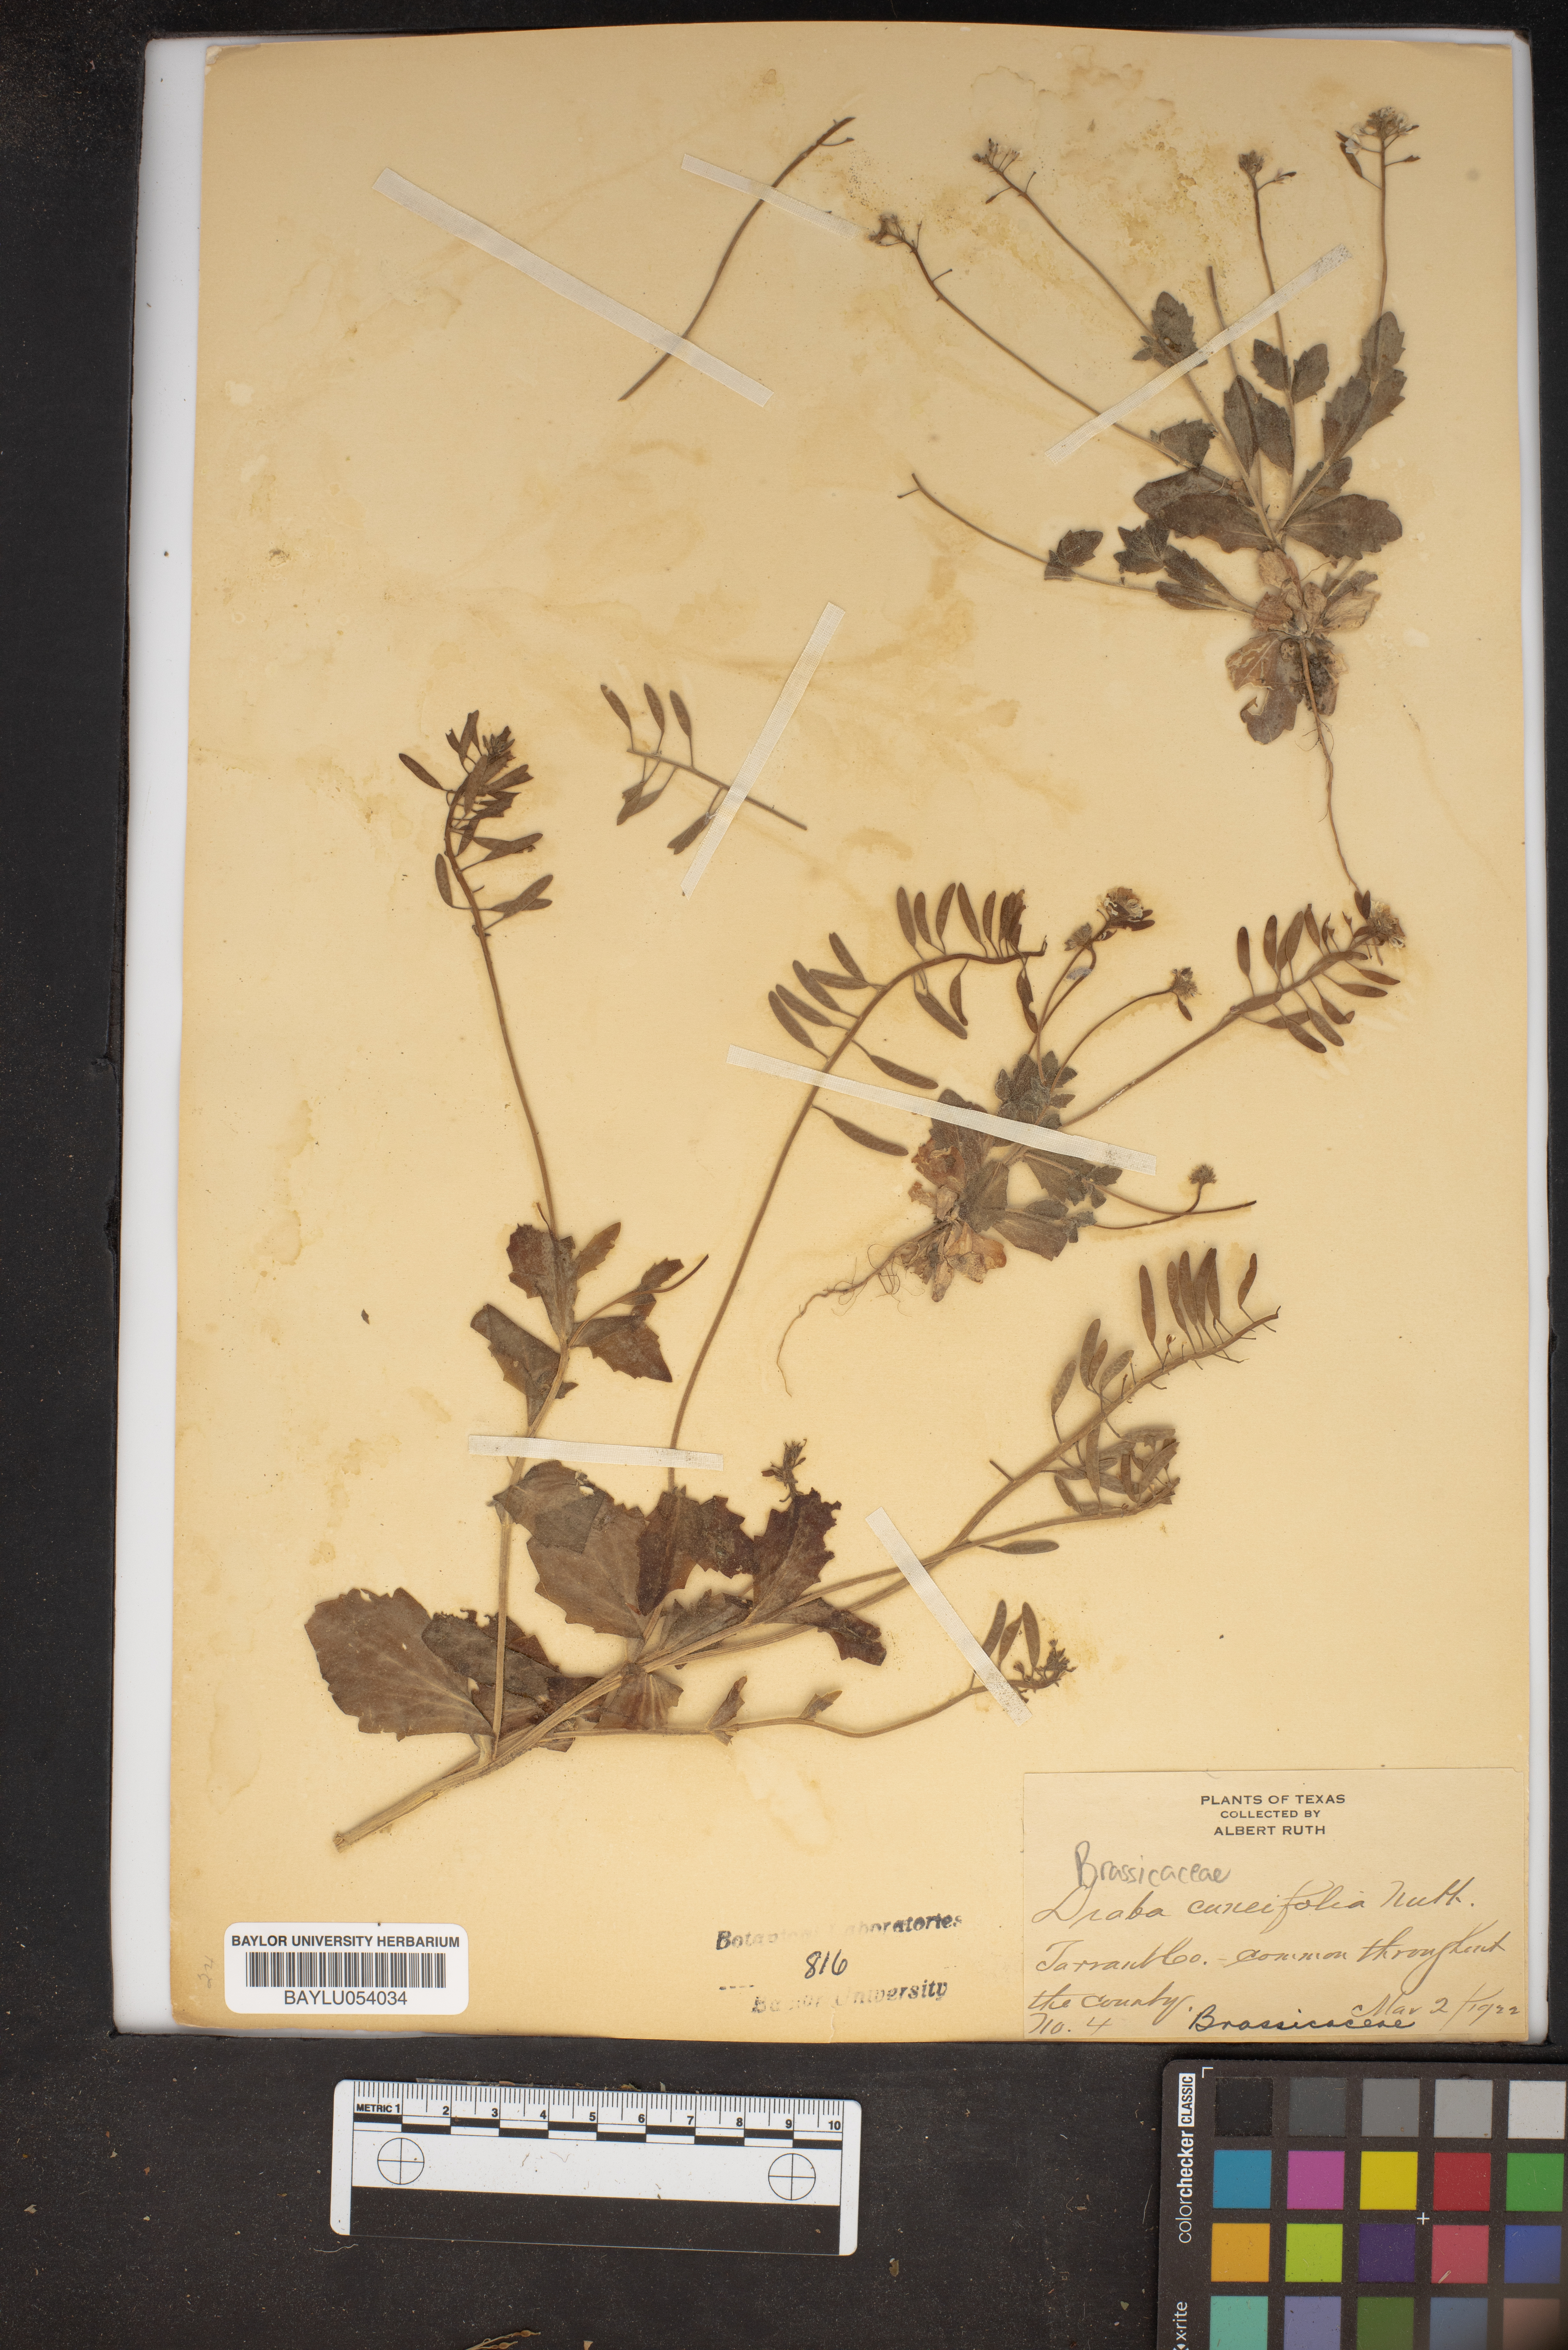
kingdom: Plantae
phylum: Tracheophyta
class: Magnoliopsida
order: Brassicales
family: Brassicaceae
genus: Tomostima
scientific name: Tomostima cuneifolia
